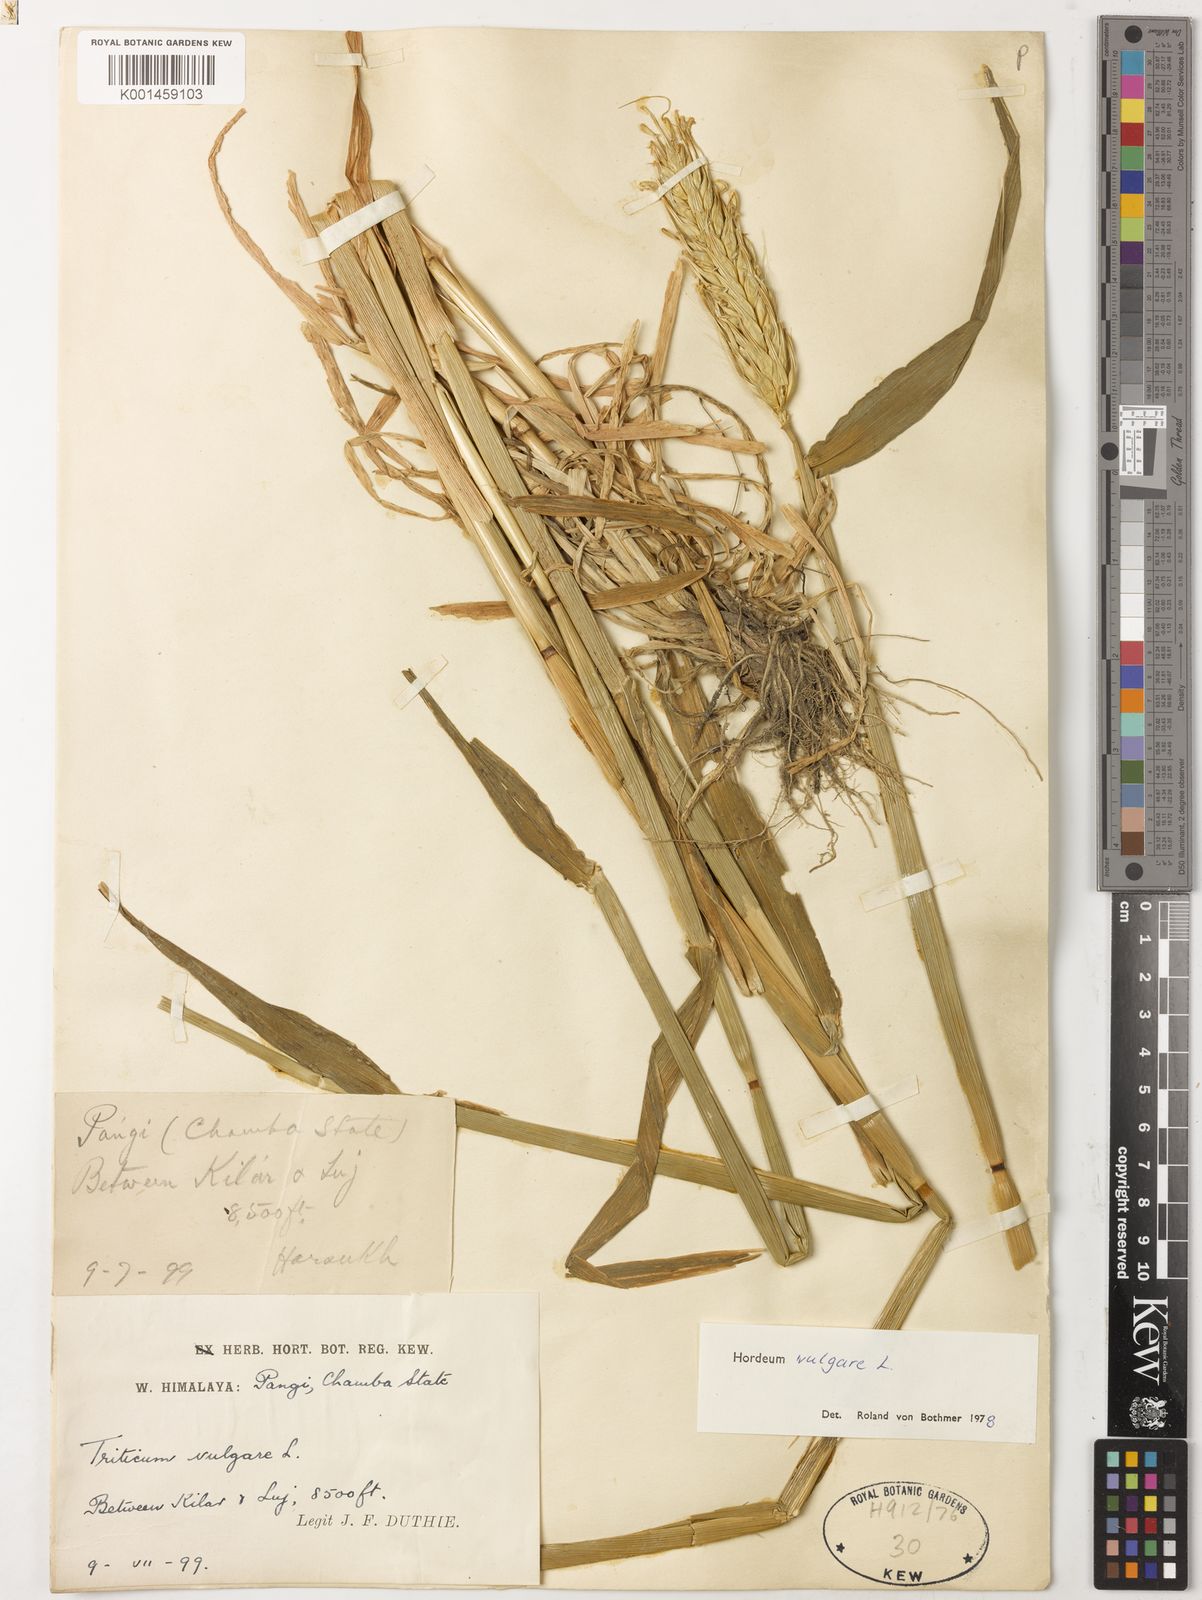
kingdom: Plantae
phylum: Tracheophyta
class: Liliopsida
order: Poales
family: Poaceae
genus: Hordeum
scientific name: Hordeum vulgare
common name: Common barley
